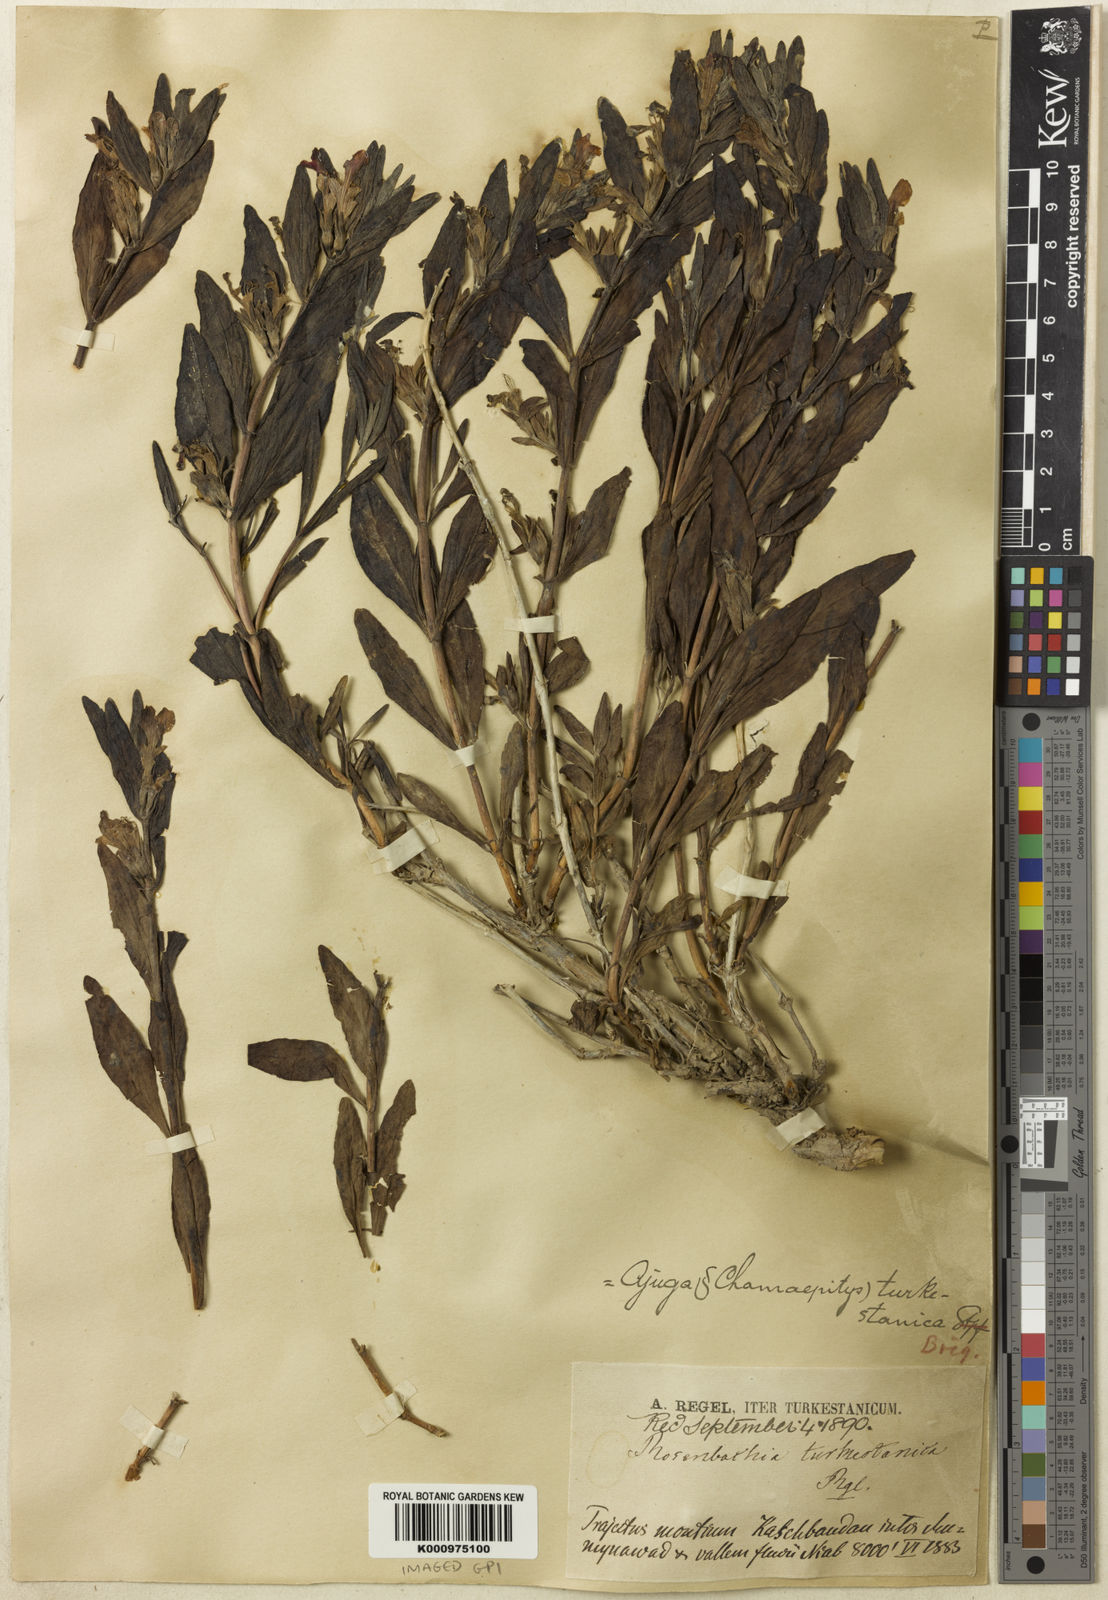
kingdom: Plantae
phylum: Tracheophyta
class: Magnoliopsida
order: Lamiales
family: Lamiaceae
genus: Ajuga
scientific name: Ajuga turkestanica
